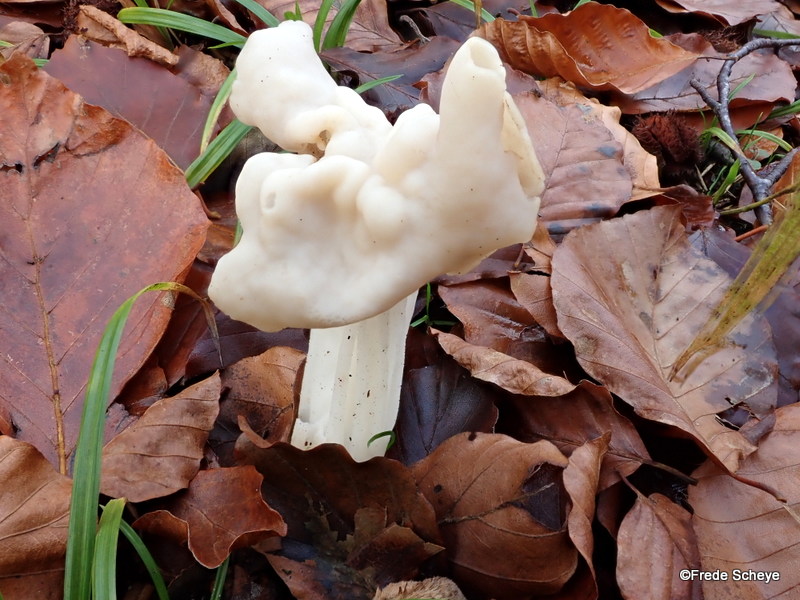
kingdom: Fungi
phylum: Ascomycota
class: Pezizomycetes
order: Pezizales
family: Helvellaceae
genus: Helvella
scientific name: Helvella crispa
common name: kruset foldhat
